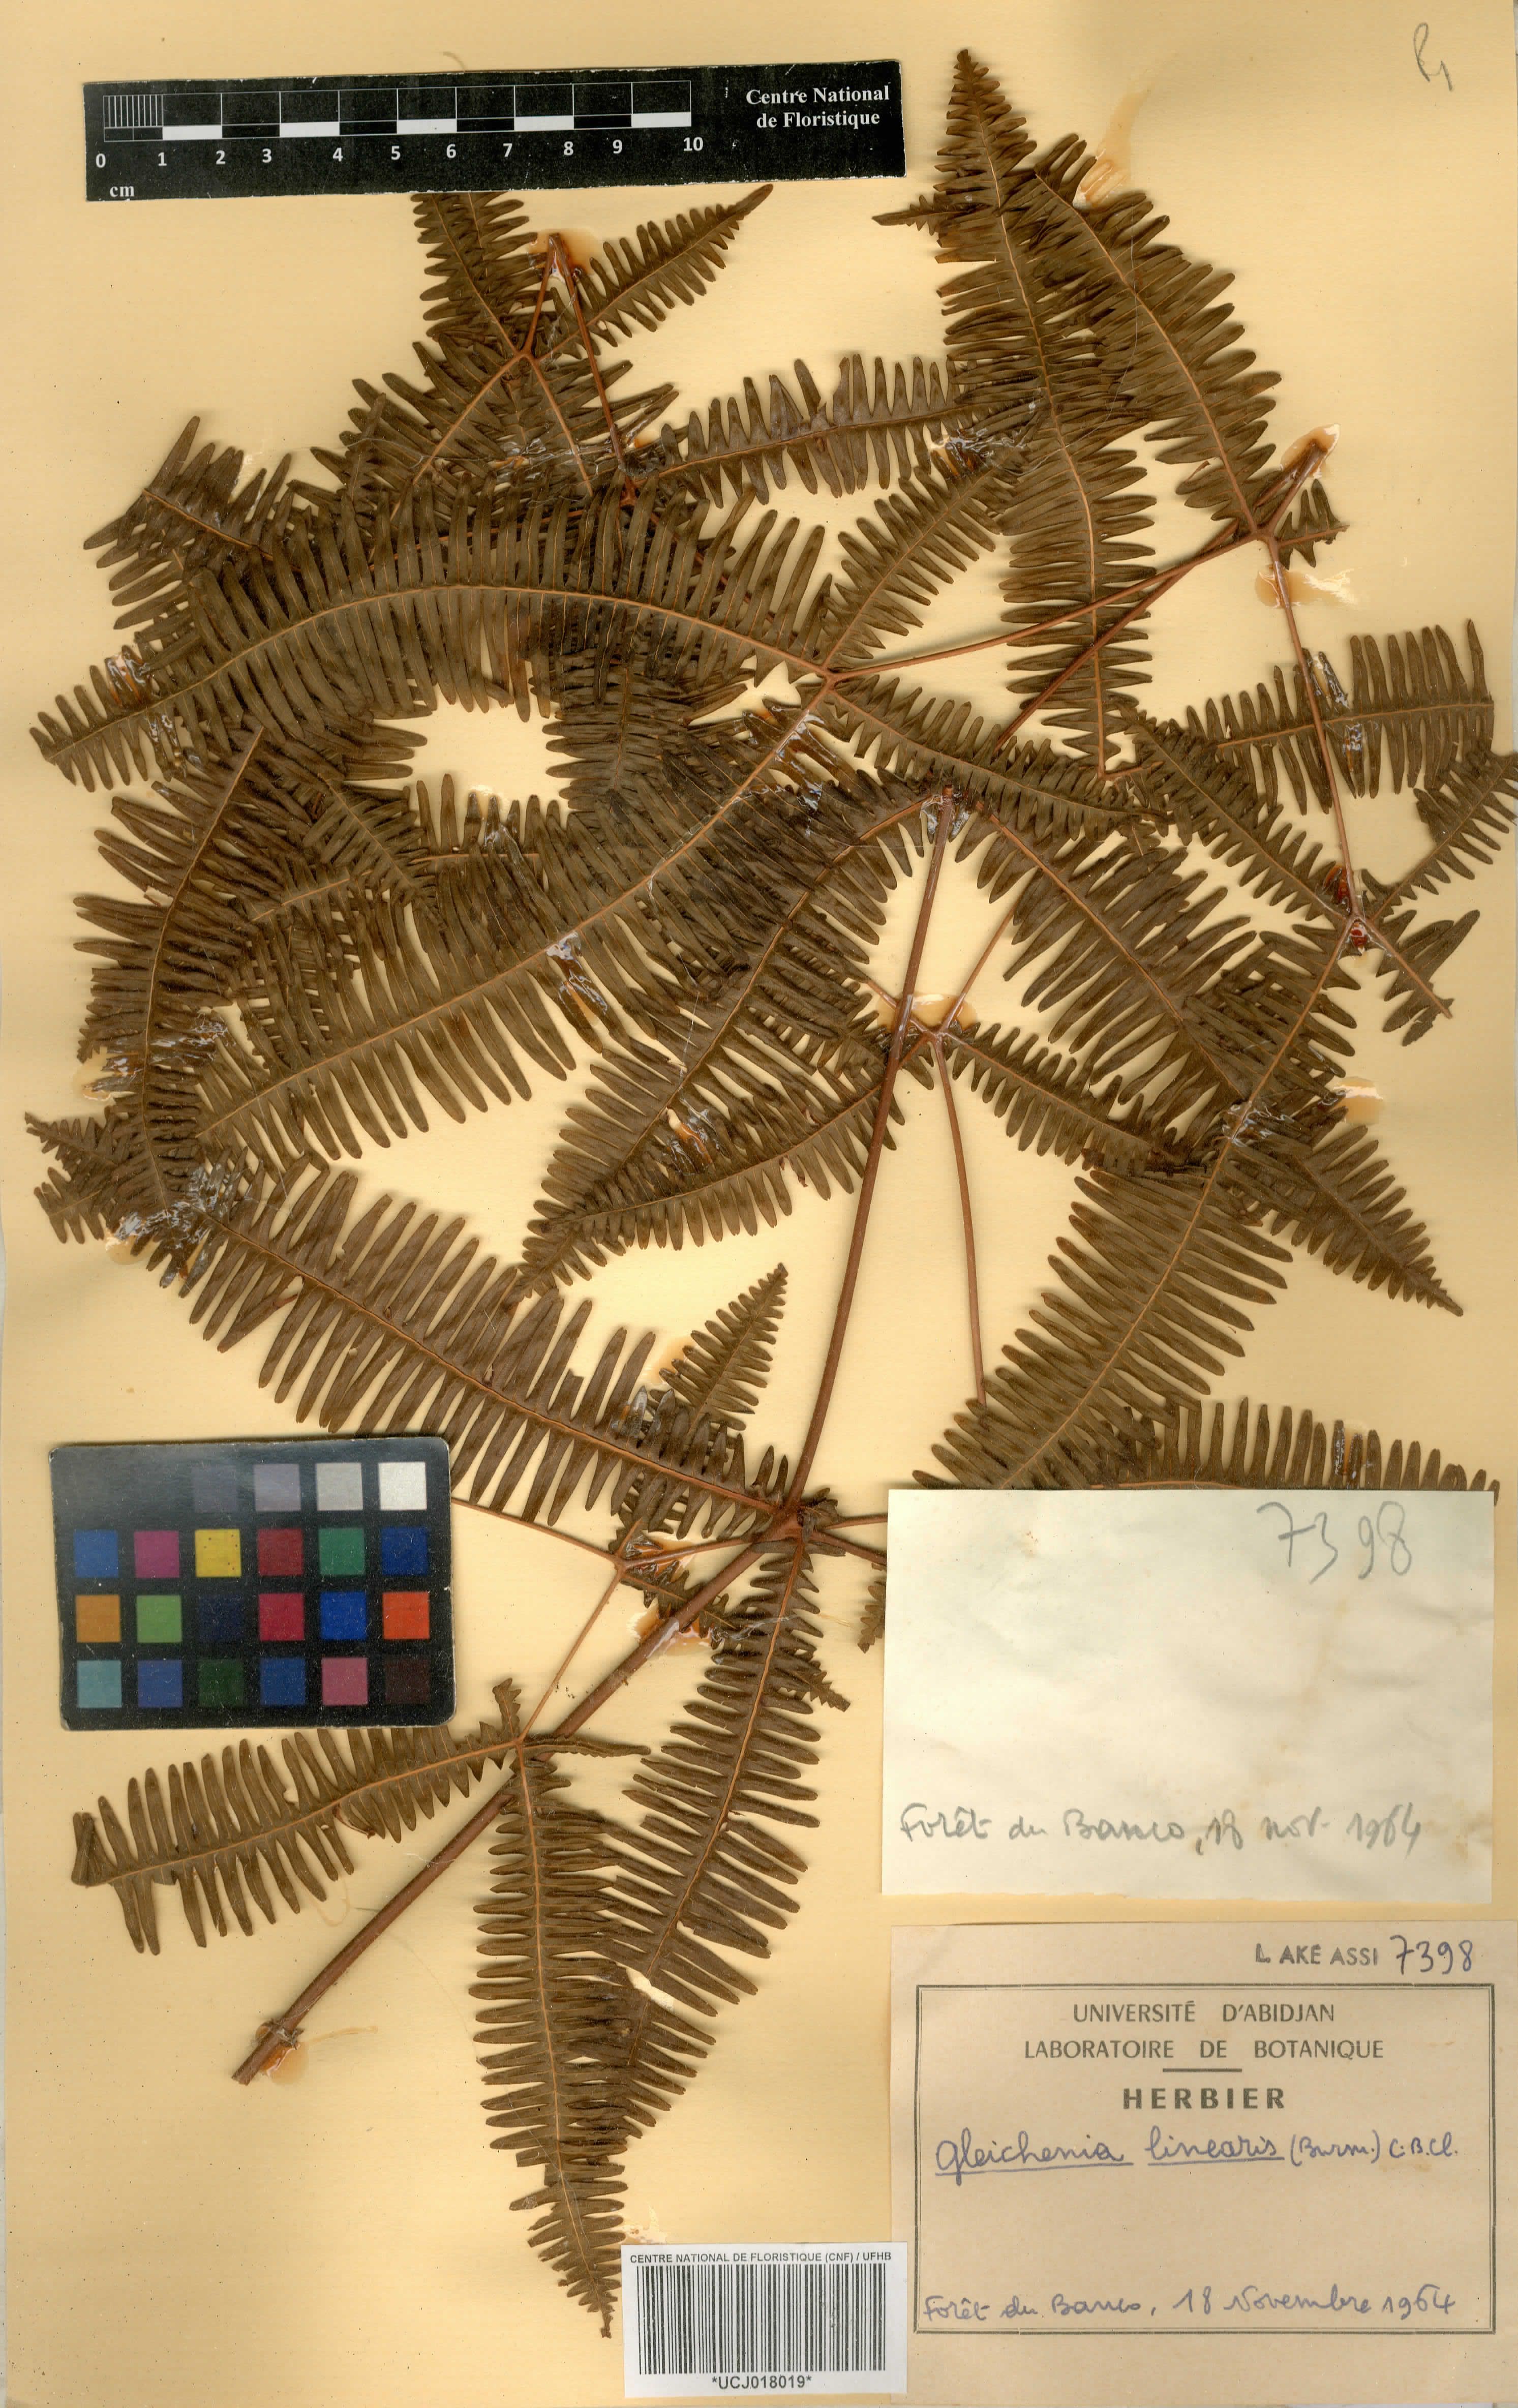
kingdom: Plantae
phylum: Tracheophyta
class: Polypodiopsida
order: Gleicheniales
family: Gleicheniaceae
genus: Dicranopteris
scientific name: Dicranopteris linearis
